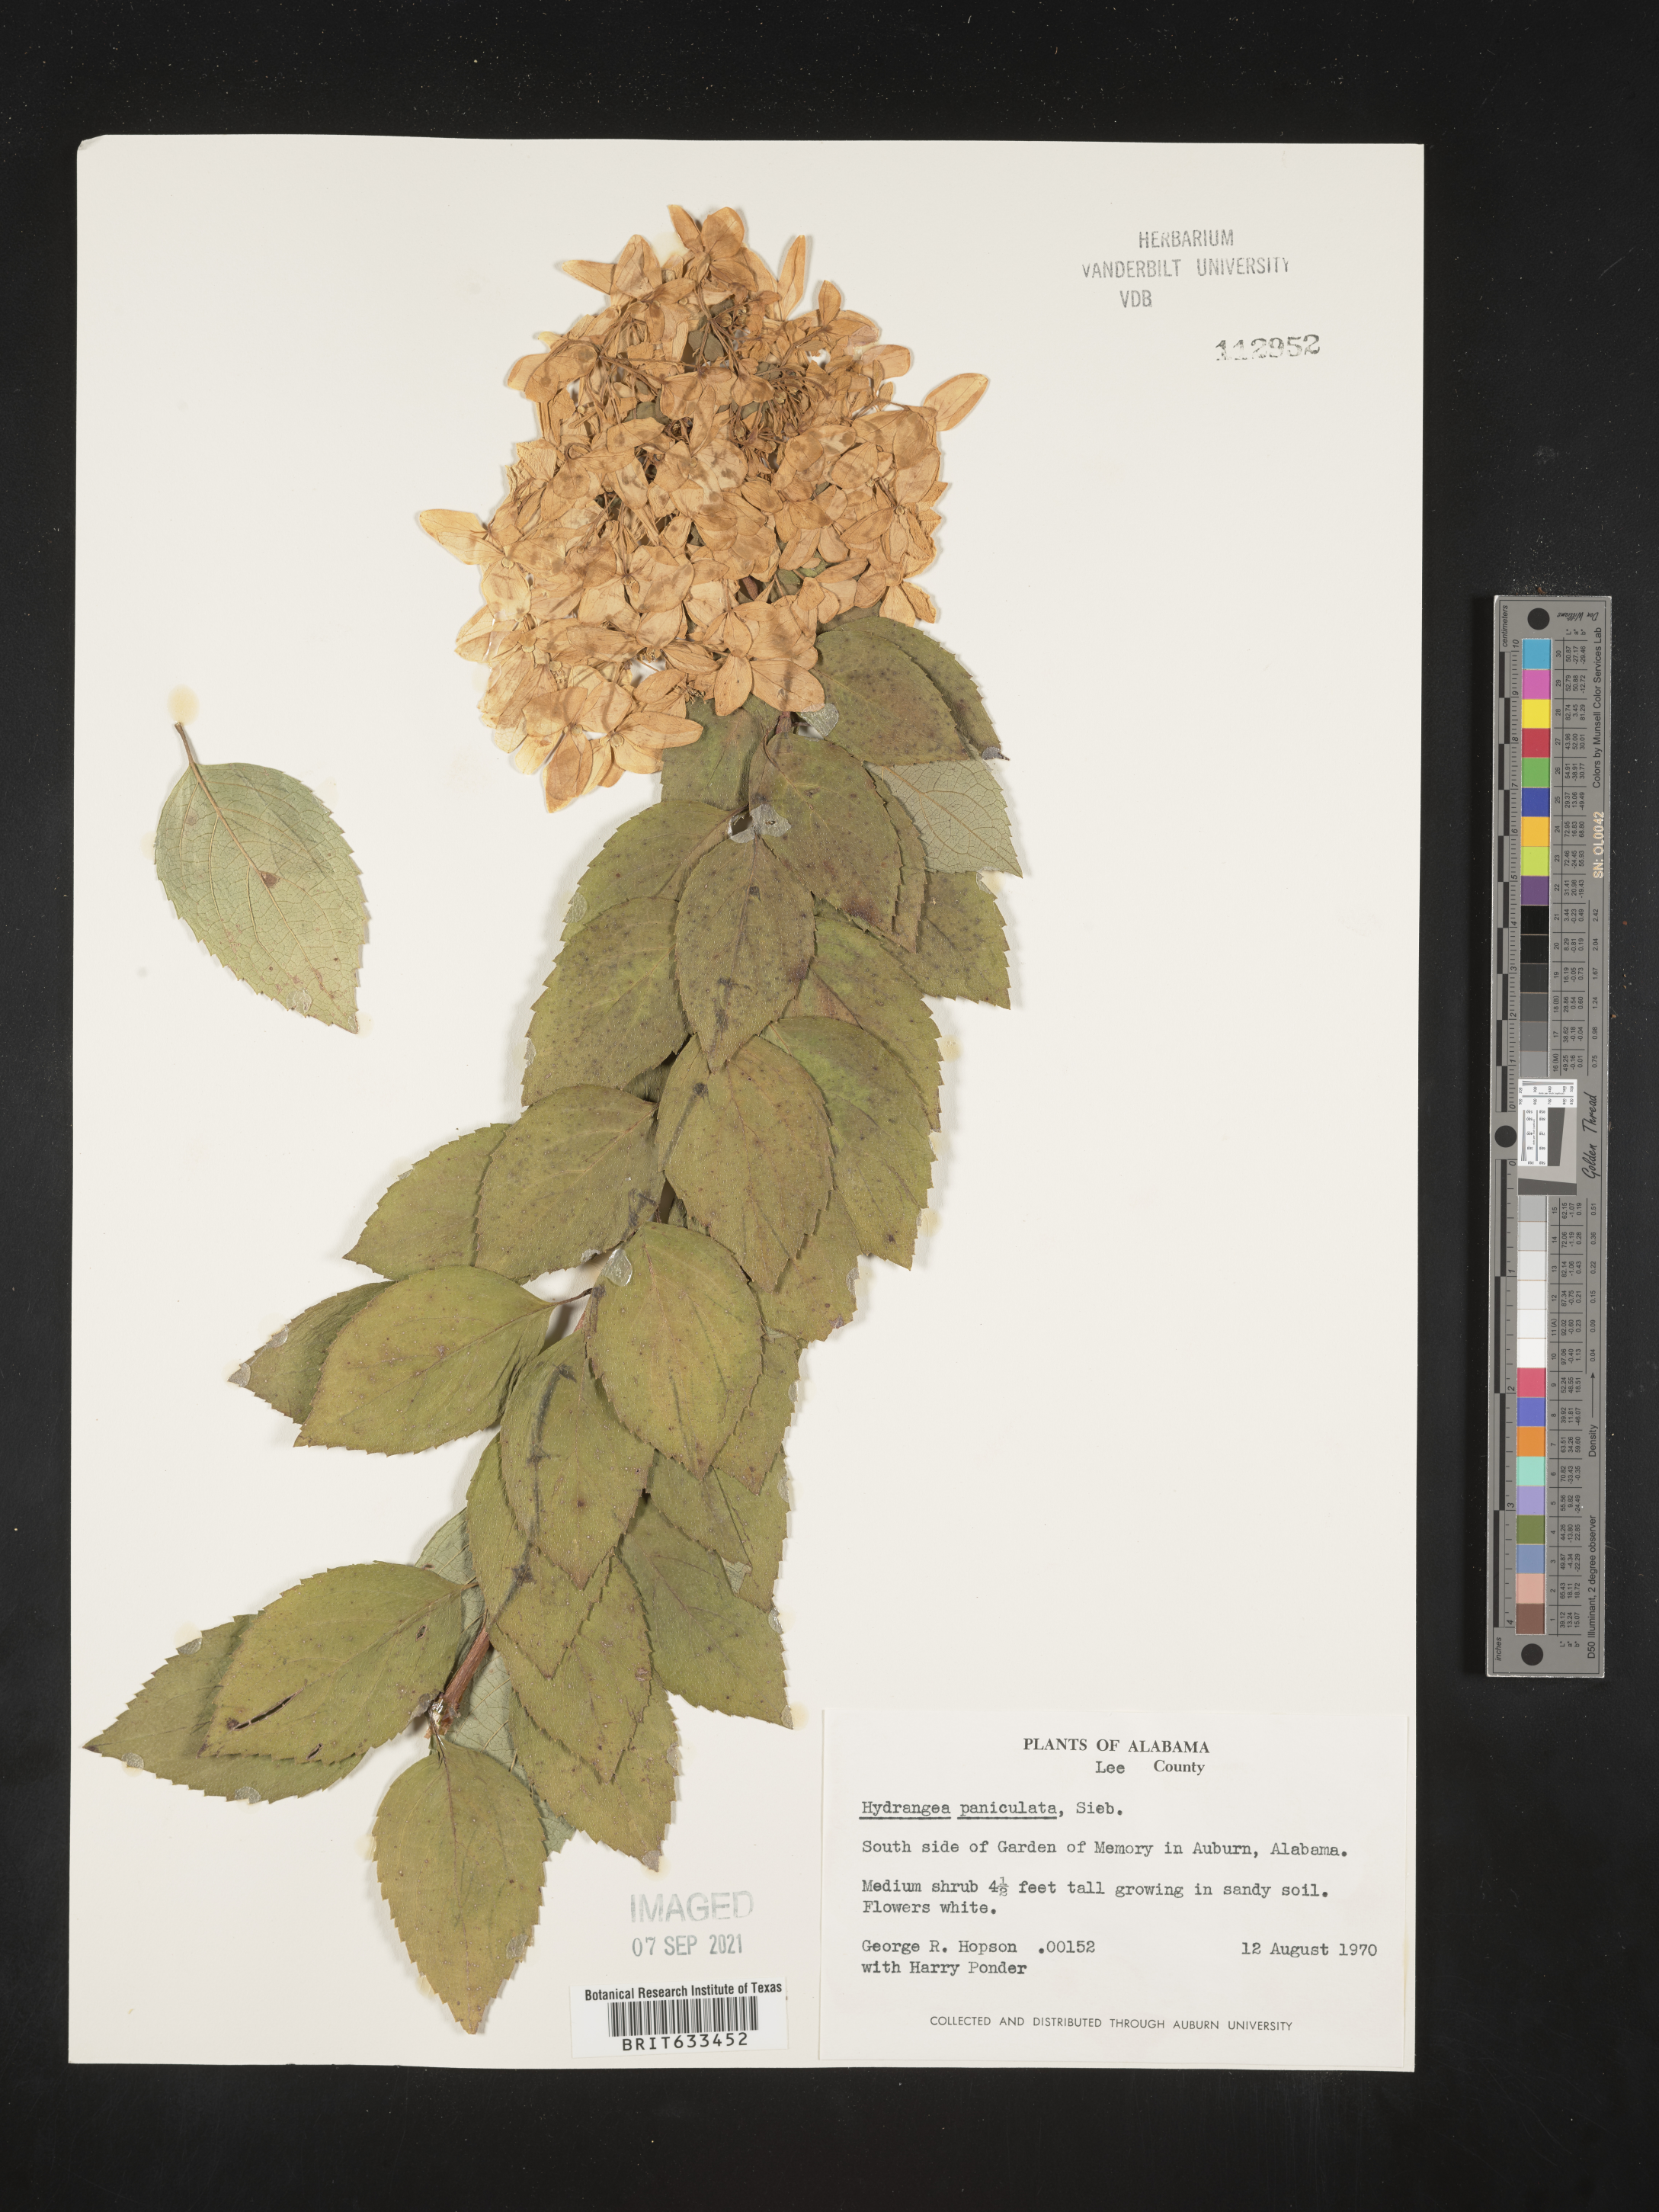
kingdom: Plantae
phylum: Tracheophyta
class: Magnoliopsida
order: Cornales
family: Hydrangeaceae
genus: Hydrangea
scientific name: Hydrangea
